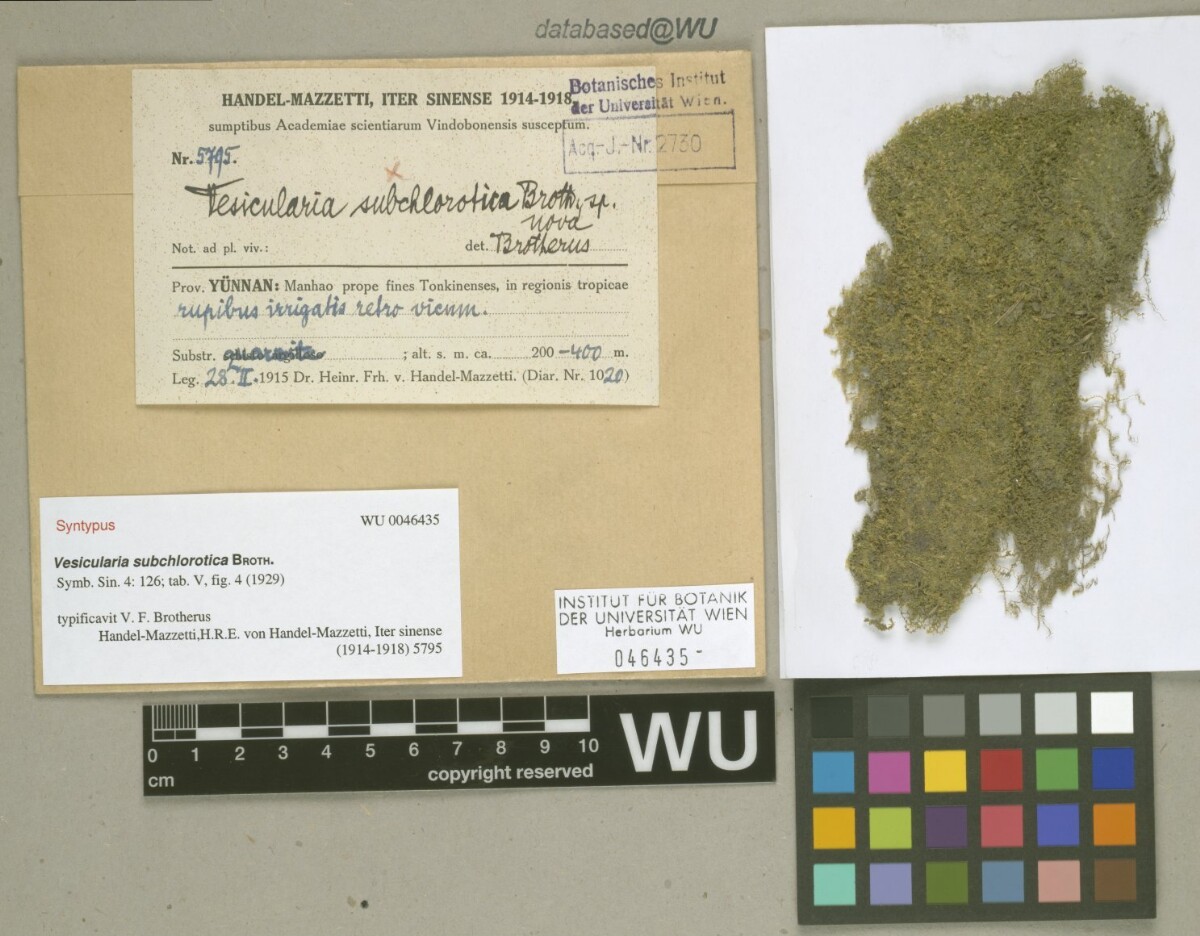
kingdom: Plantae
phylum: Bryophyta
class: Bryopsida
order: Hypnales
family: Hypnaceae
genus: Vesicularia
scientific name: Vesicularia subchlorotica
